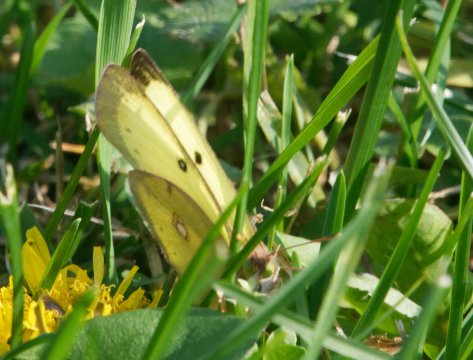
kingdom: Animalia
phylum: Arthropoda
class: Insecta
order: Lepidoptera
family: Pieridae
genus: Colias
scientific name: Colias philodice
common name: Clouded Sulphur
